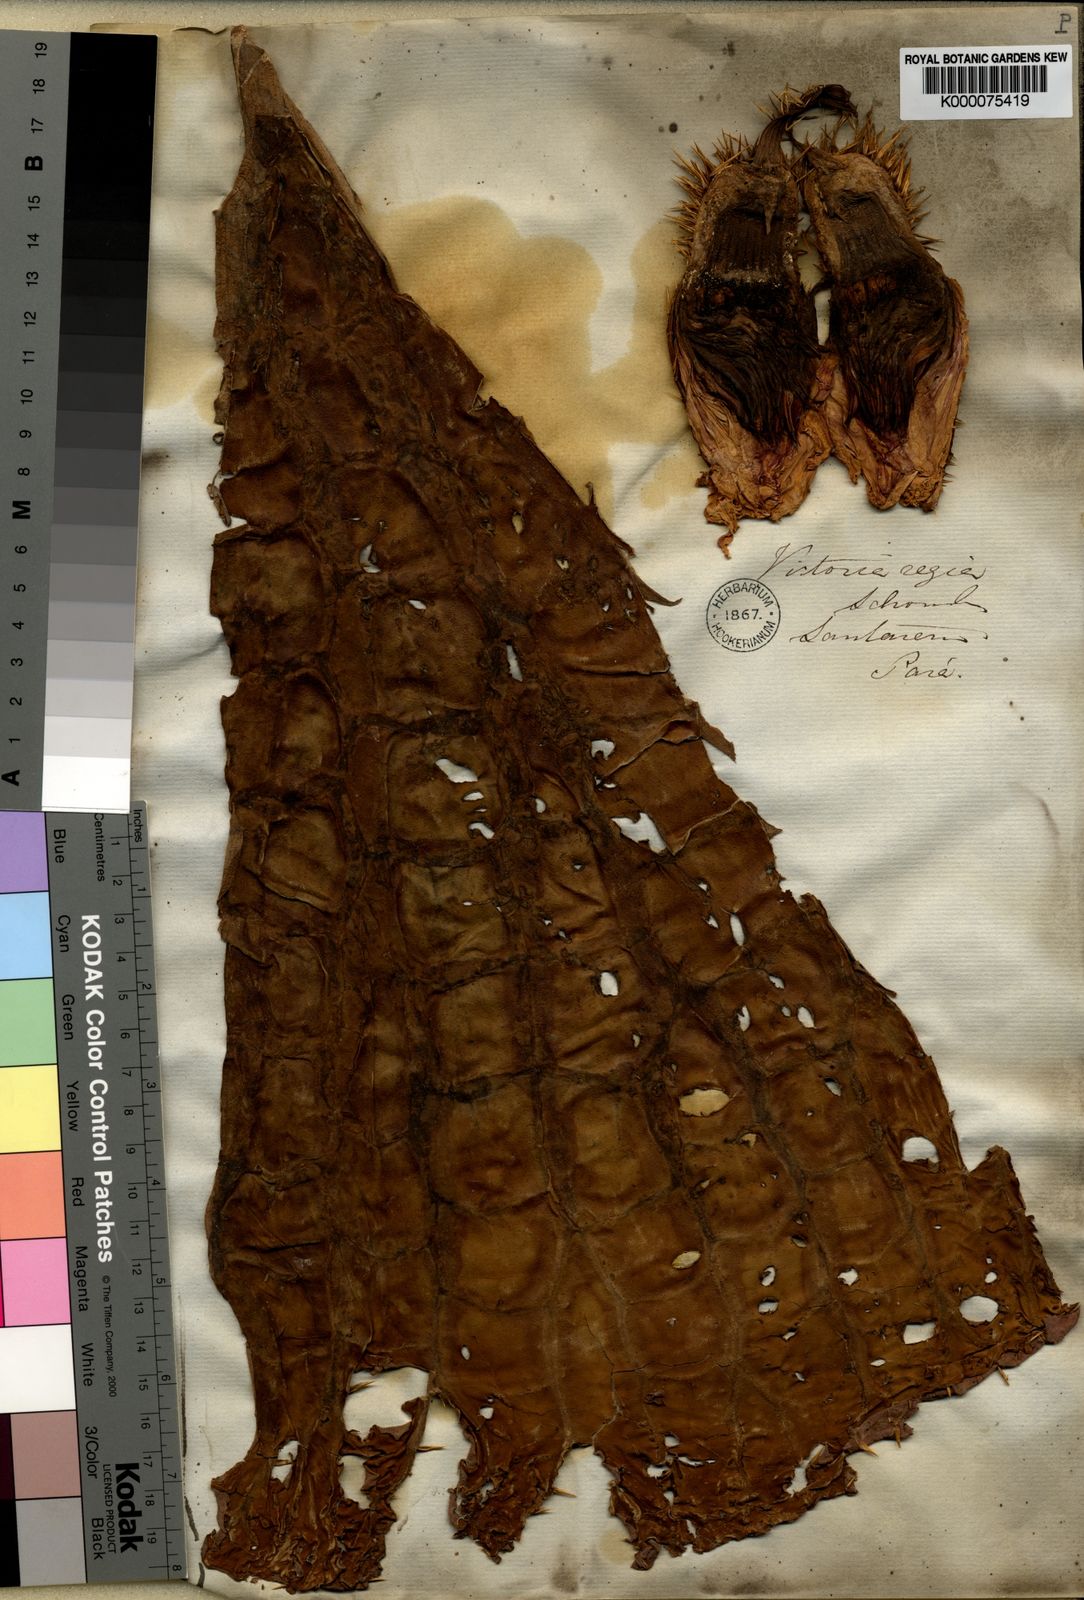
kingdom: Plantae
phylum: Tracheophyta
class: Magnoliopsida
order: Nymphaeales
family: Nymphaeaceae
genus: Victoria
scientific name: Victoria
